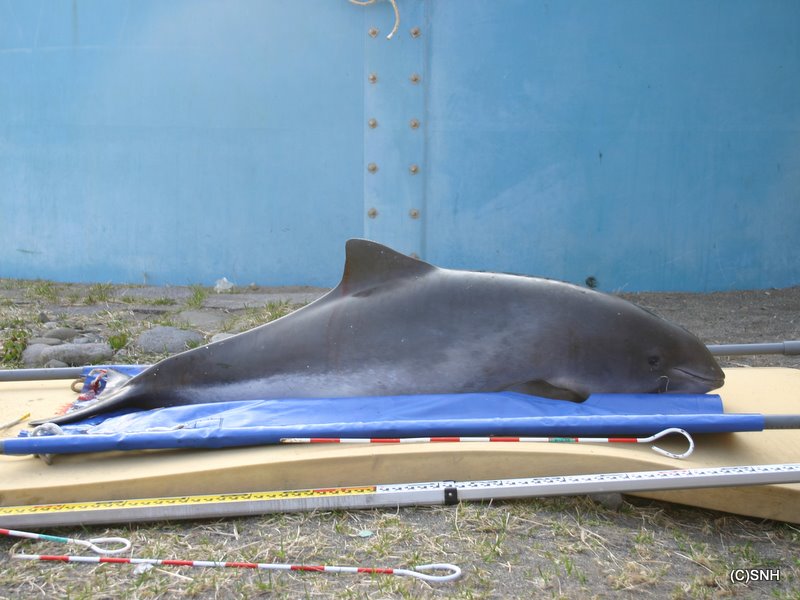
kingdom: Animalia
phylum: Chordata
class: Mammalia
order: Cetacea
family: Phocoenidae
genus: Phocoena
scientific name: Phocoena phocoena
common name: Harbour porpoise
